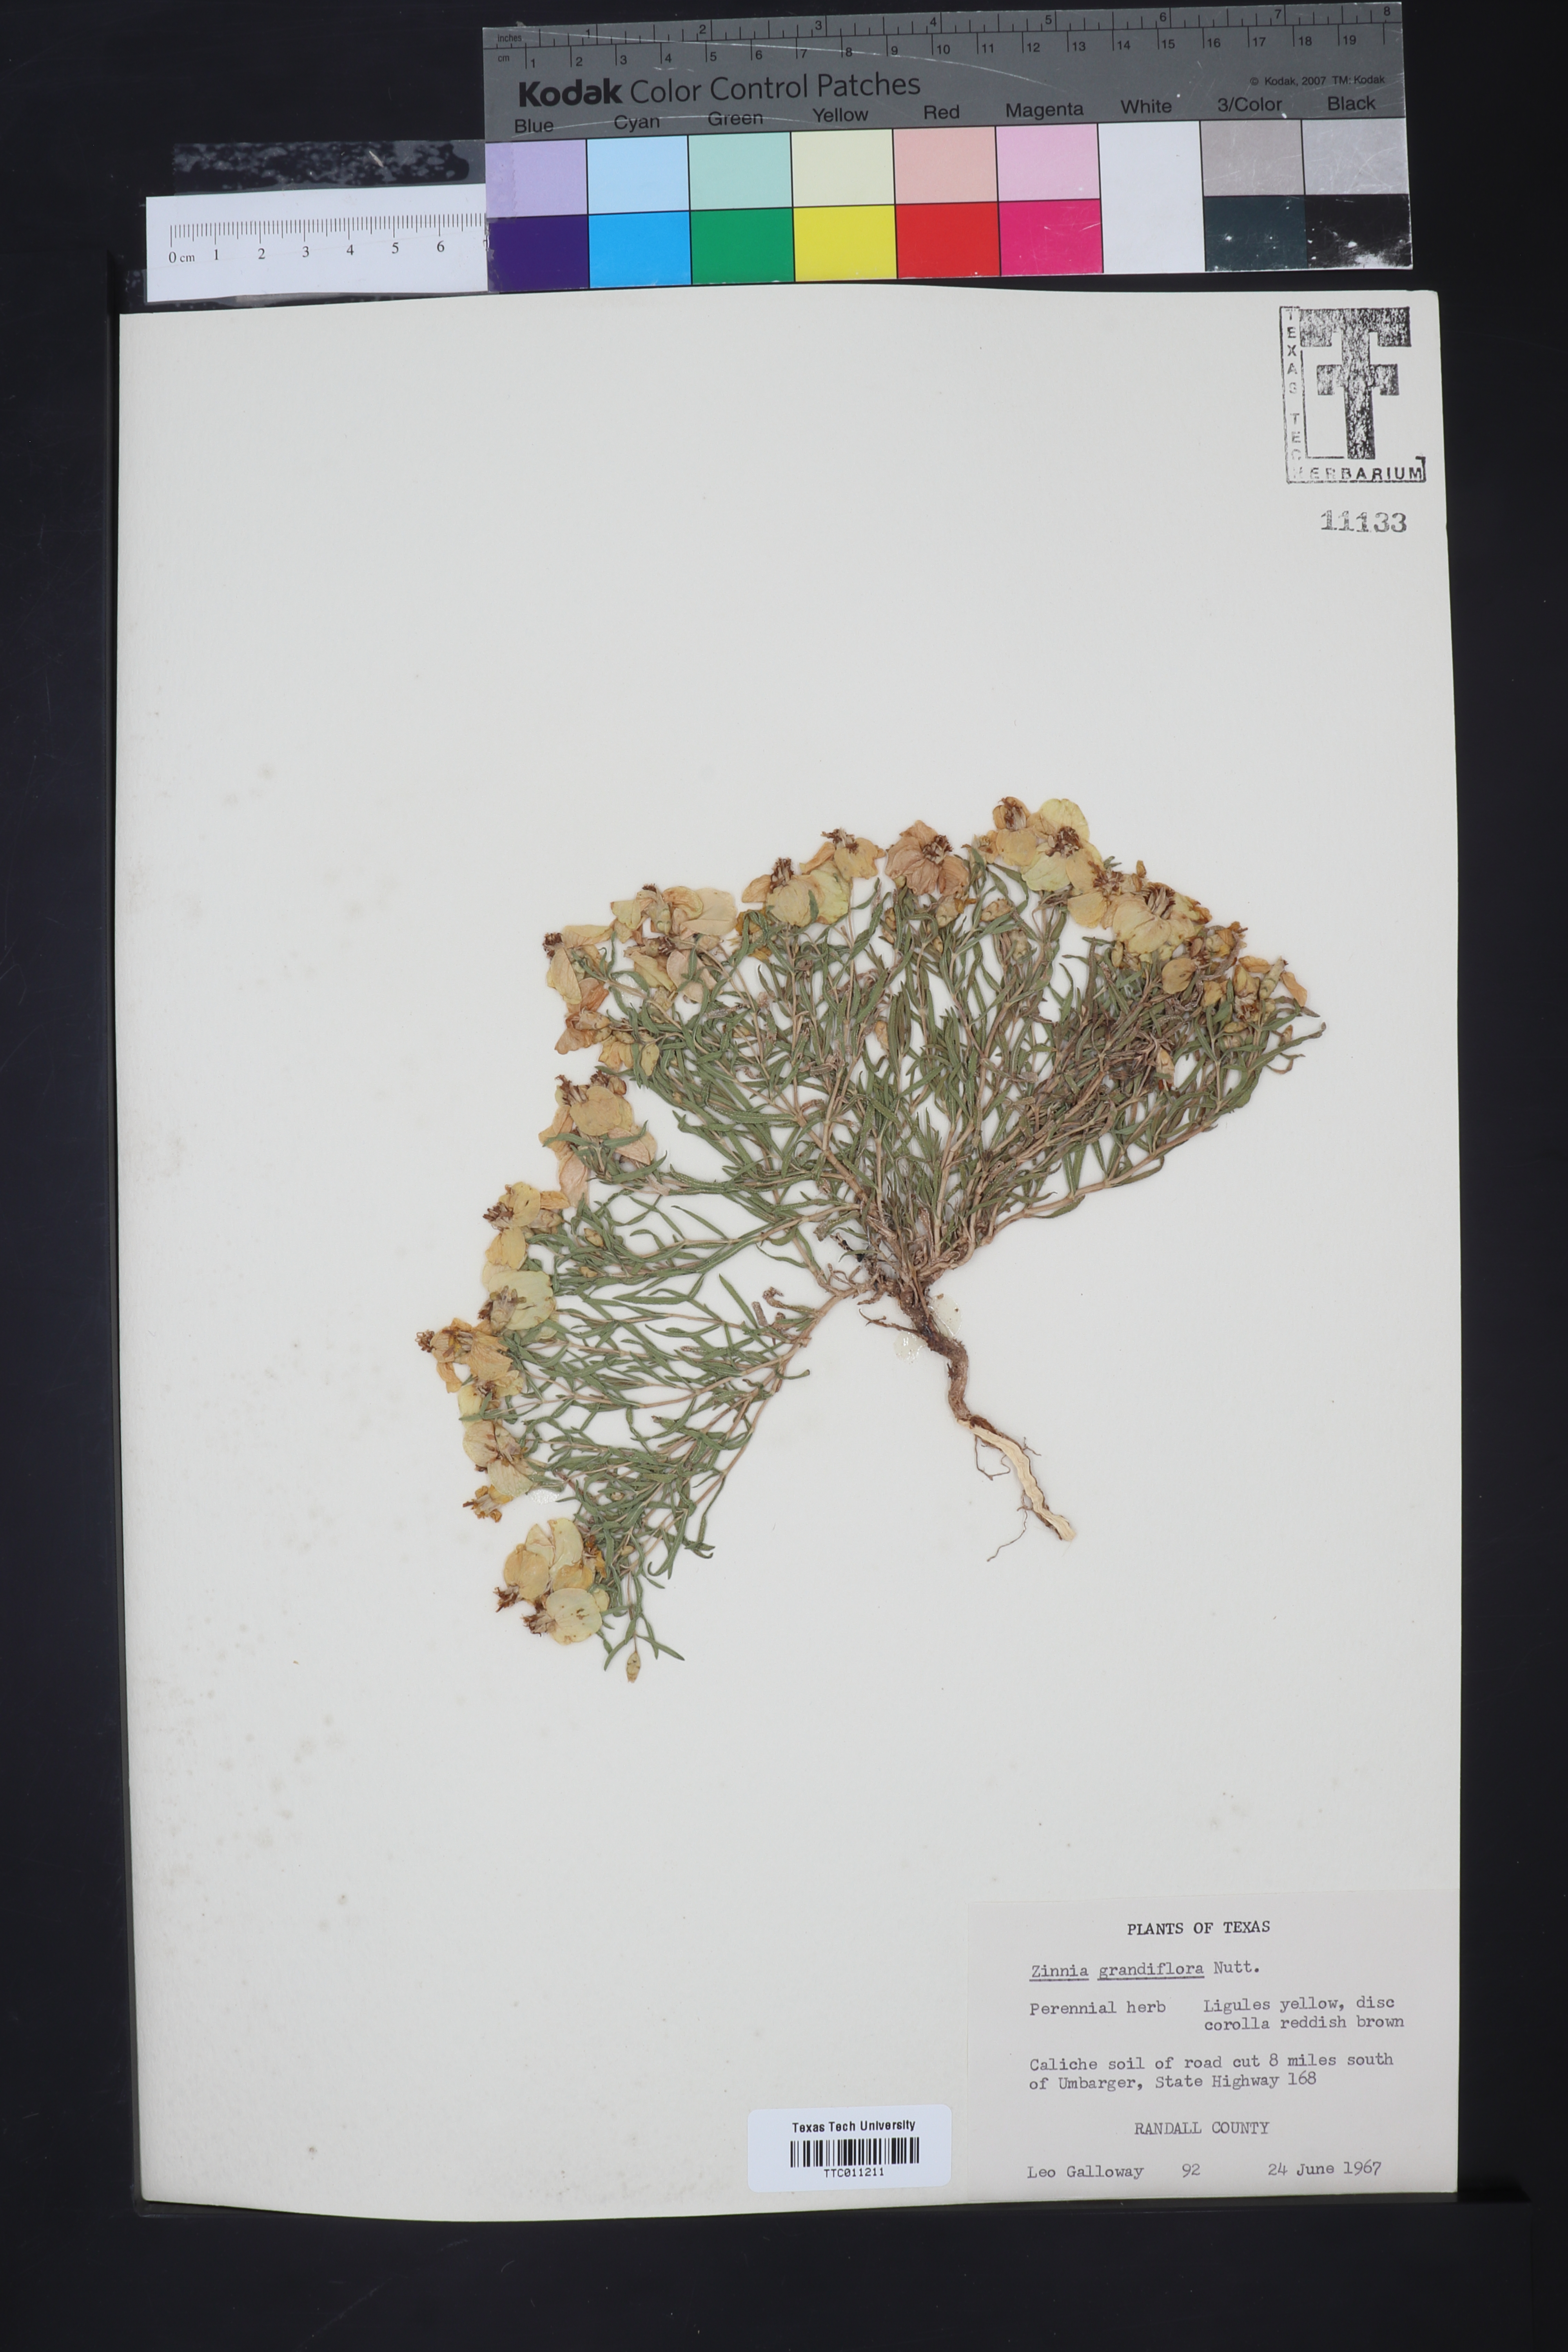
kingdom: Plantae
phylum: Tracheophyta
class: Magnoliopsida
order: Asterales
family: Asteraceae
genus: Zinnia
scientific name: Zinnia grandiflora
